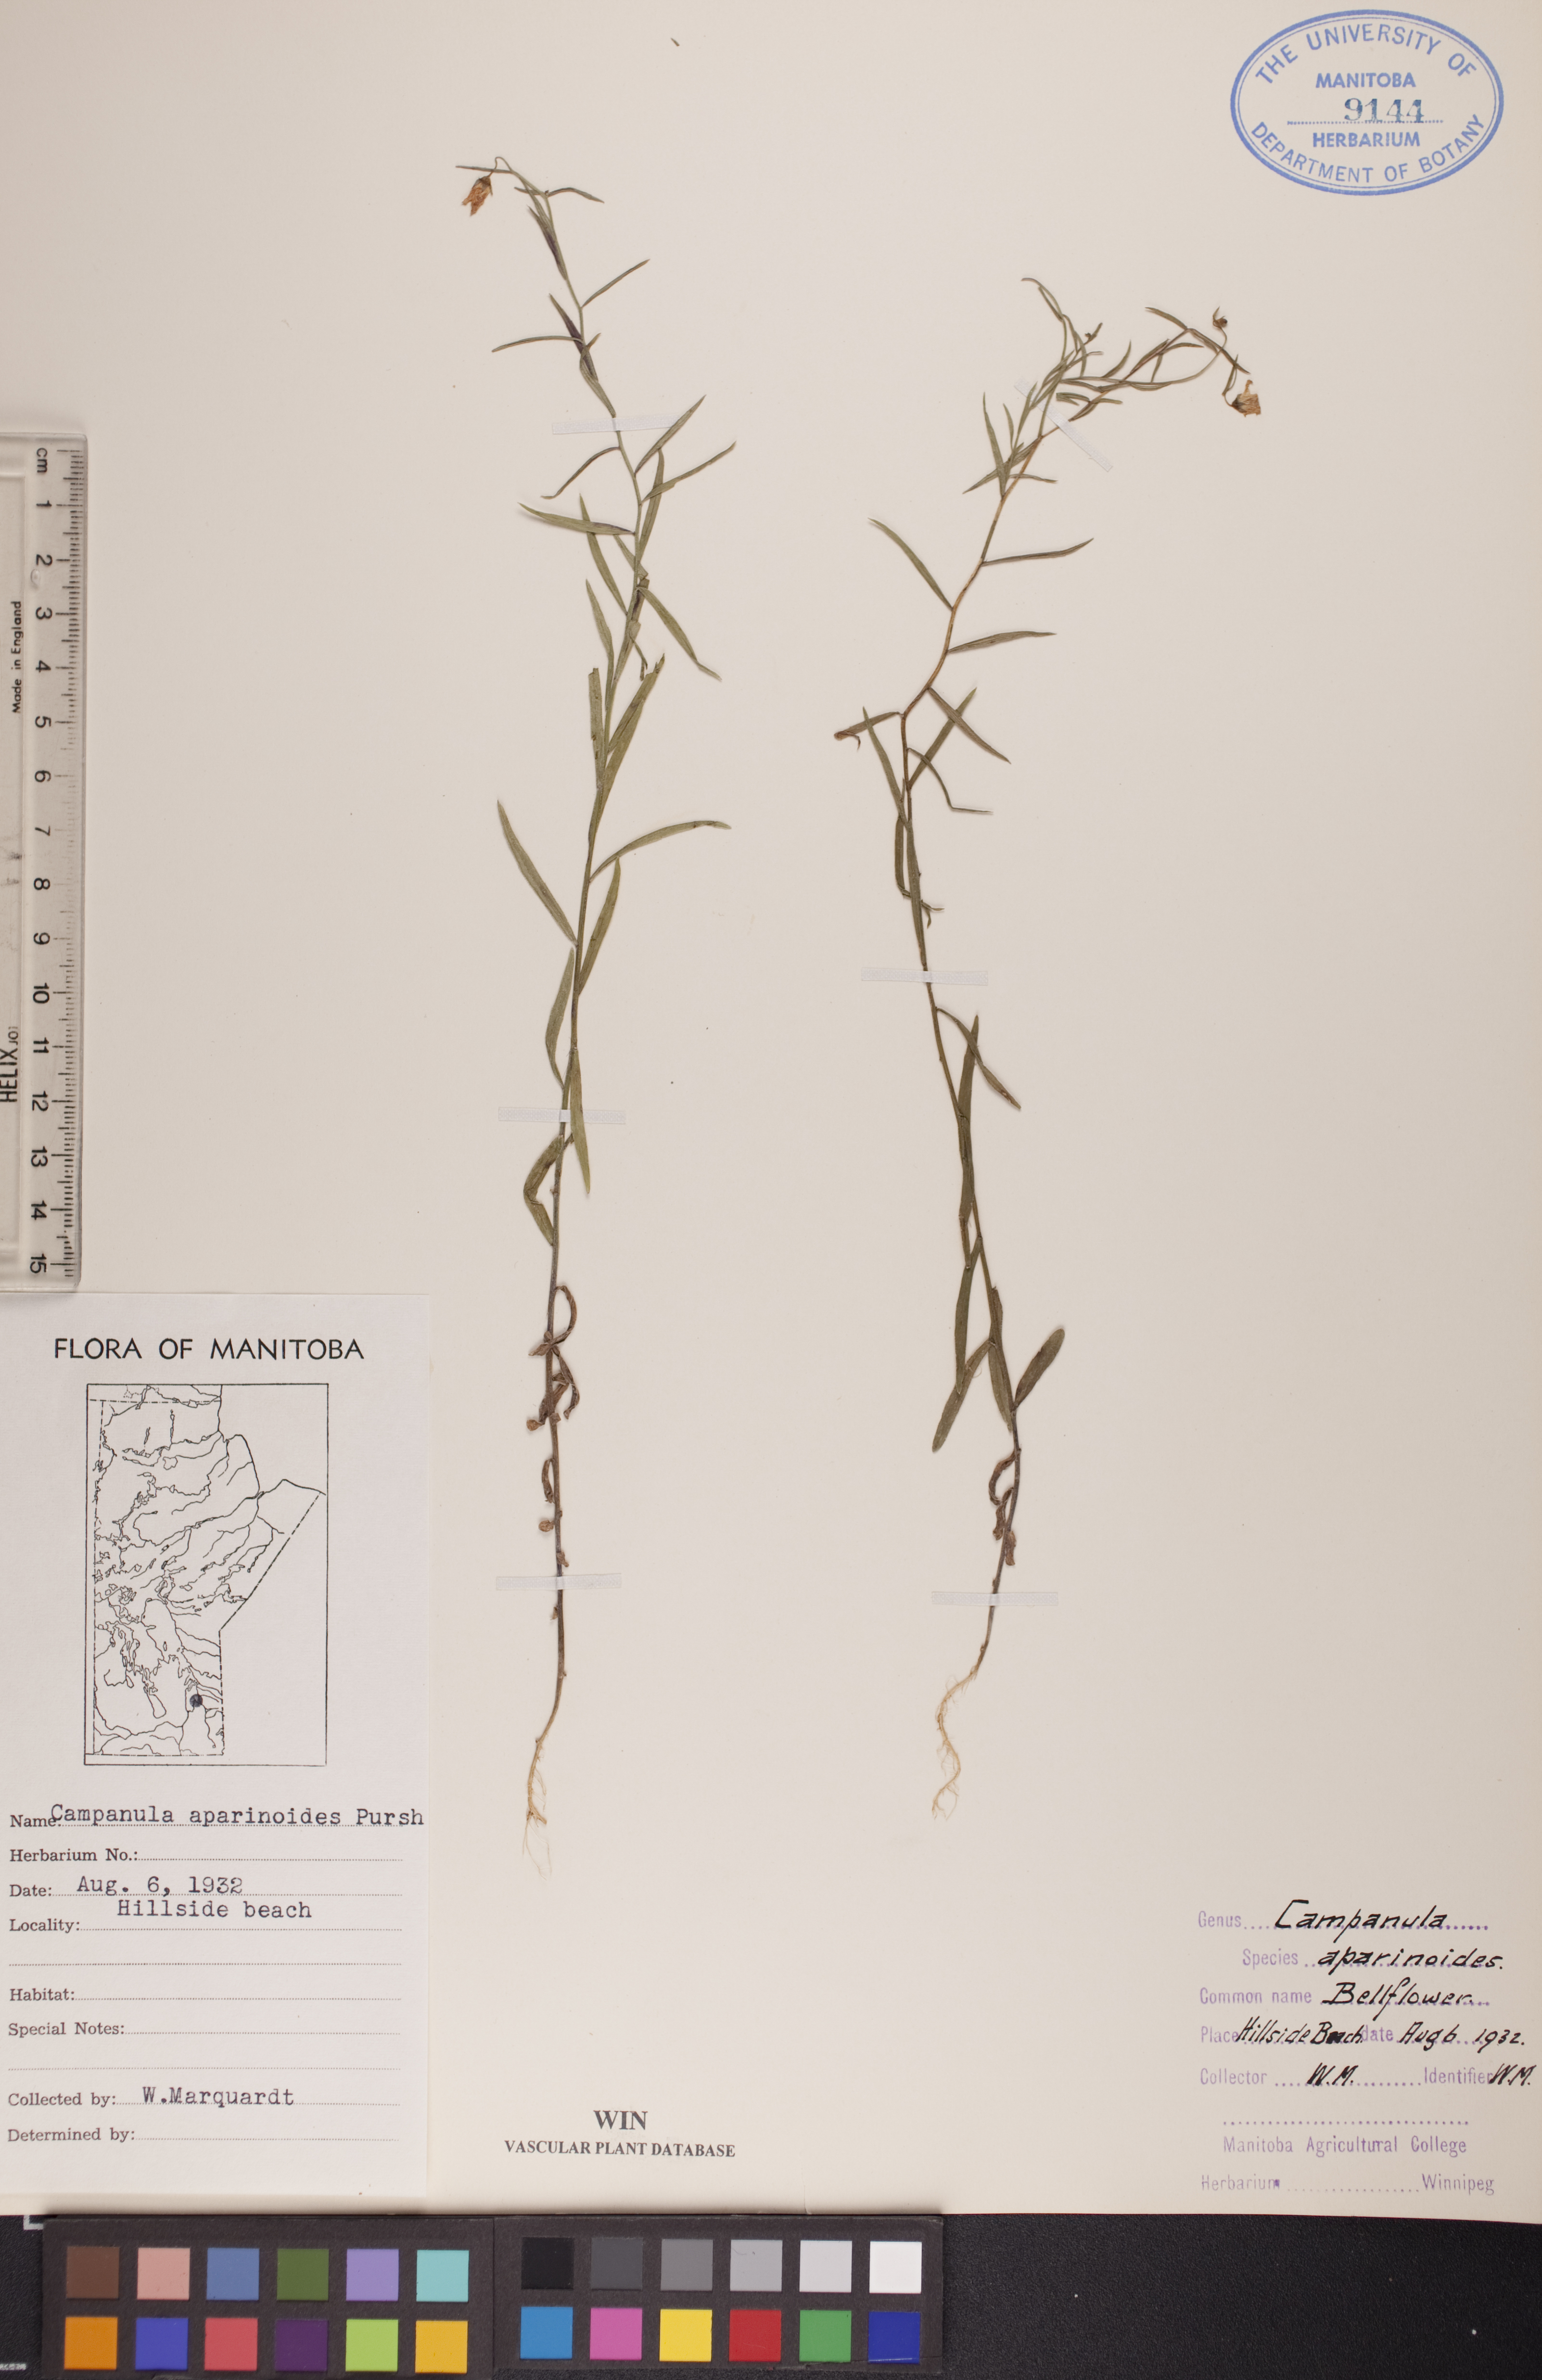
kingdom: Plantae
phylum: Tracheophyta
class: Magnoliopsida
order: Asterales
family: Campanulaceae
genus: Palustricodon
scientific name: Palustricodon aparinoides
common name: Bedstraw bellflower
